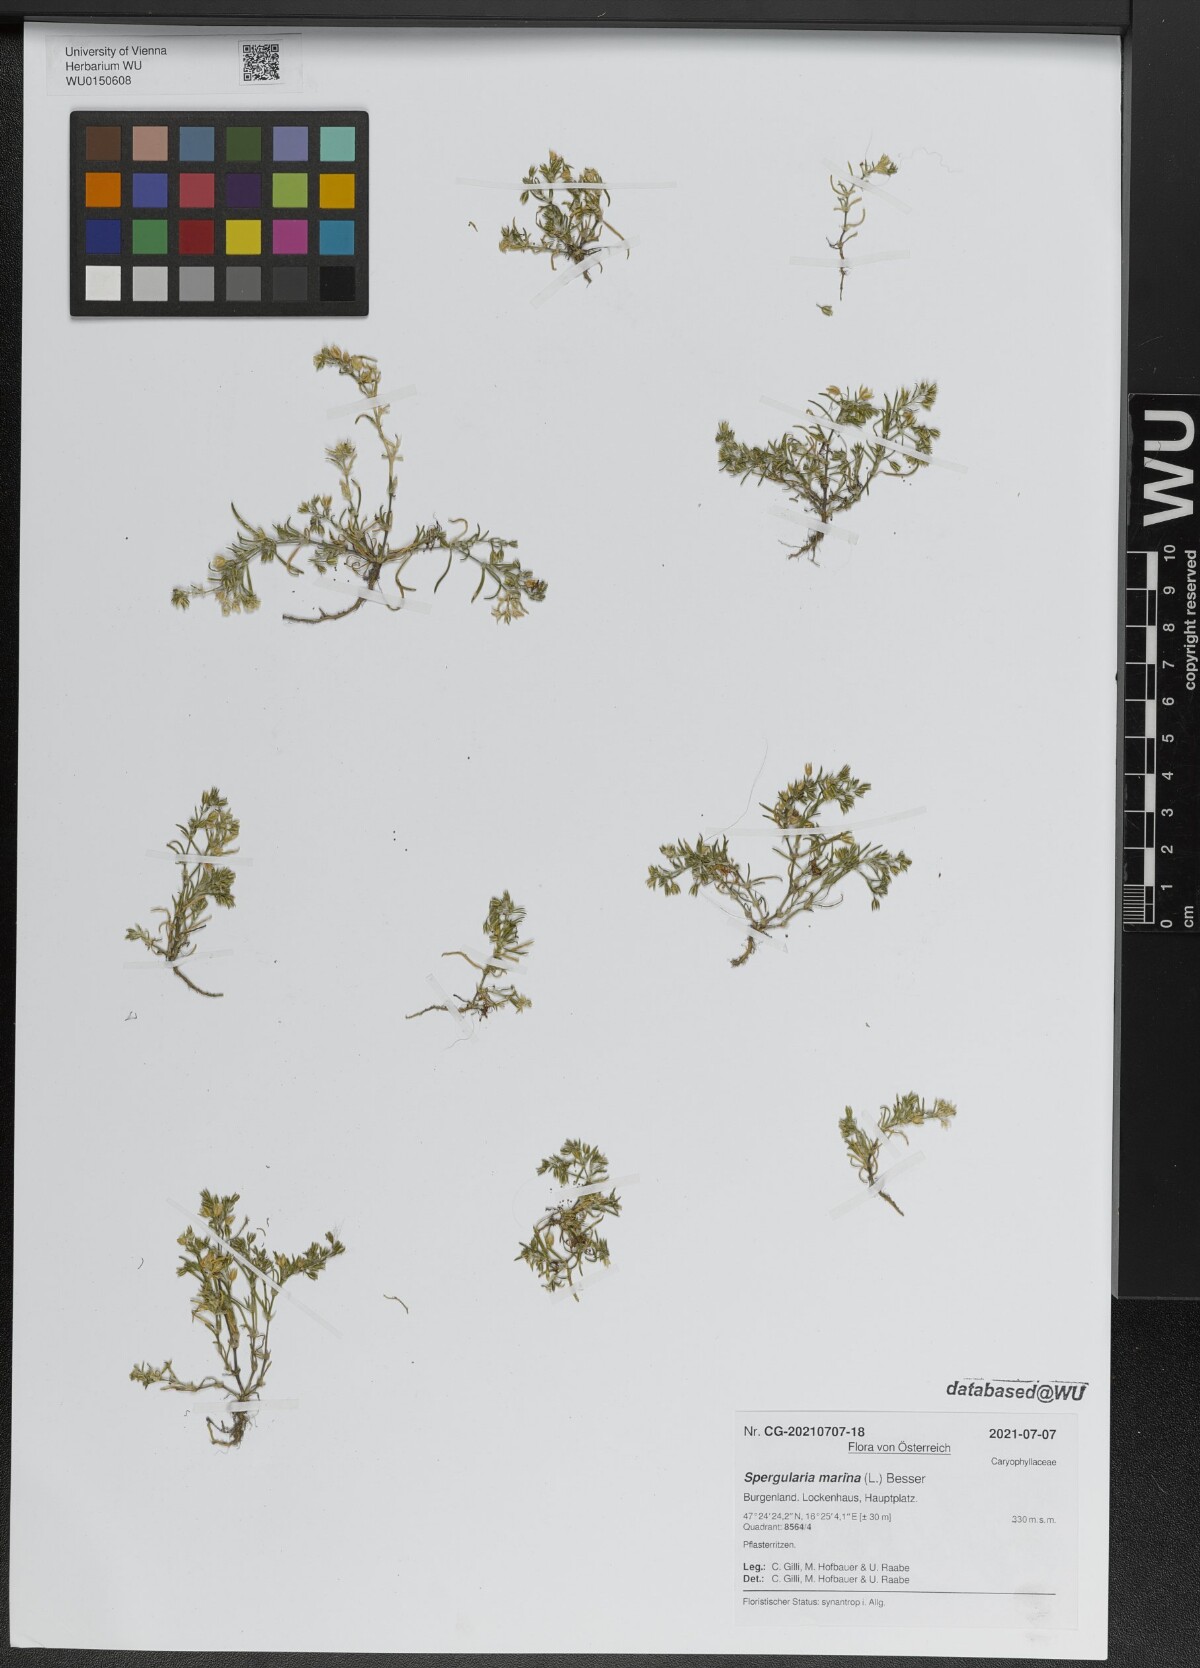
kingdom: Plantae
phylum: Tracheophyta
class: Magnoliopsida
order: Caryophyllales
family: Caryophyllaceae
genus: Spergularia
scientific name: Spergularia marina
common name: Lesser sea-spurrey
